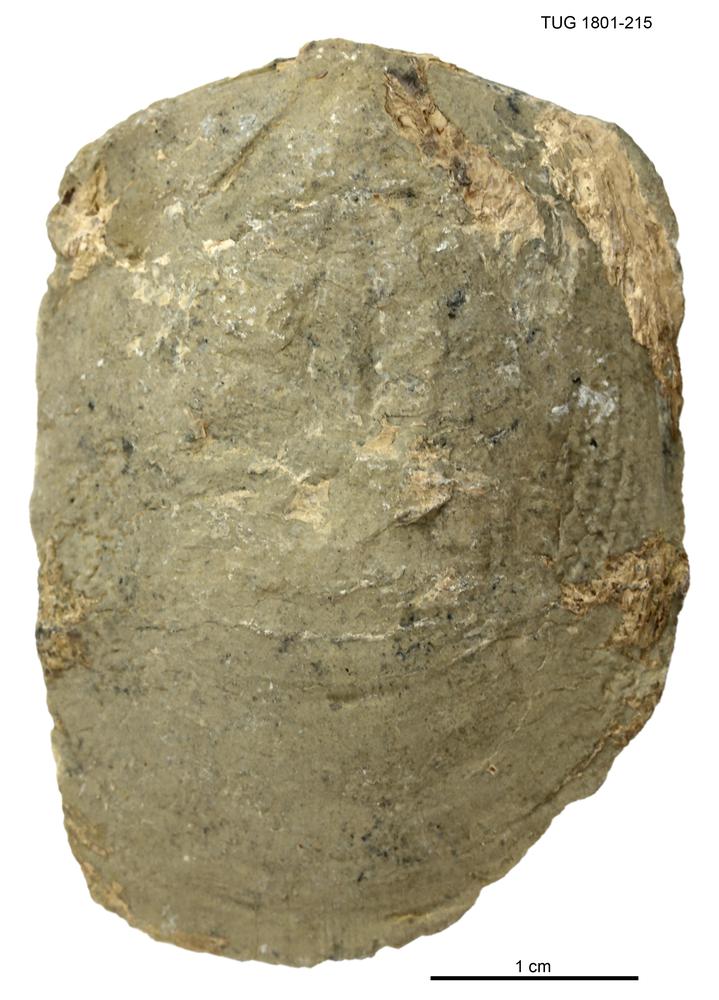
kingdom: Animalia
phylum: Brachiopoda
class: Lingulata
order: Lingulida
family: Pseudolingulidae
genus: Pseudolingula
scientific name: Pseudolingula Crania quadrata
